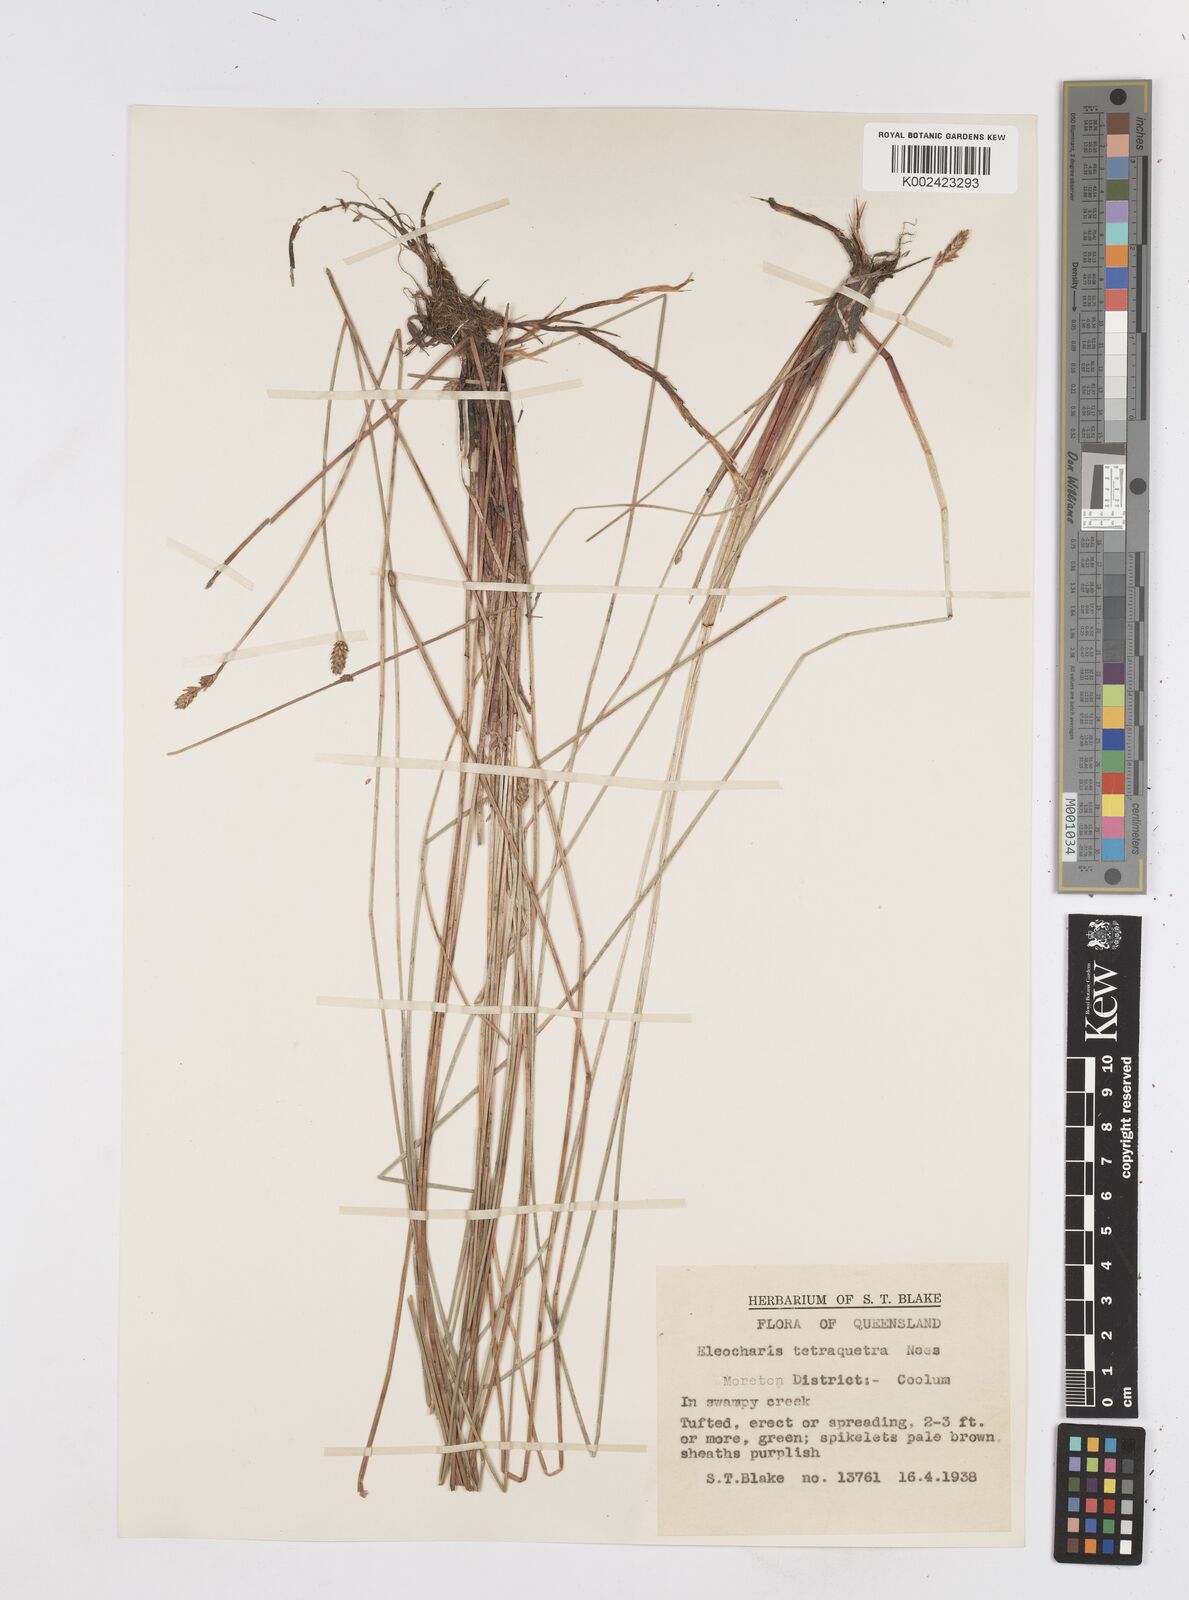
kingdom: Plantae
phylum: Tracheophyta
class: Liliopsida
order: Poales
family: Cyperaceae
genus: Eleocharis
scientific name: Eleocharis tetraquetra
